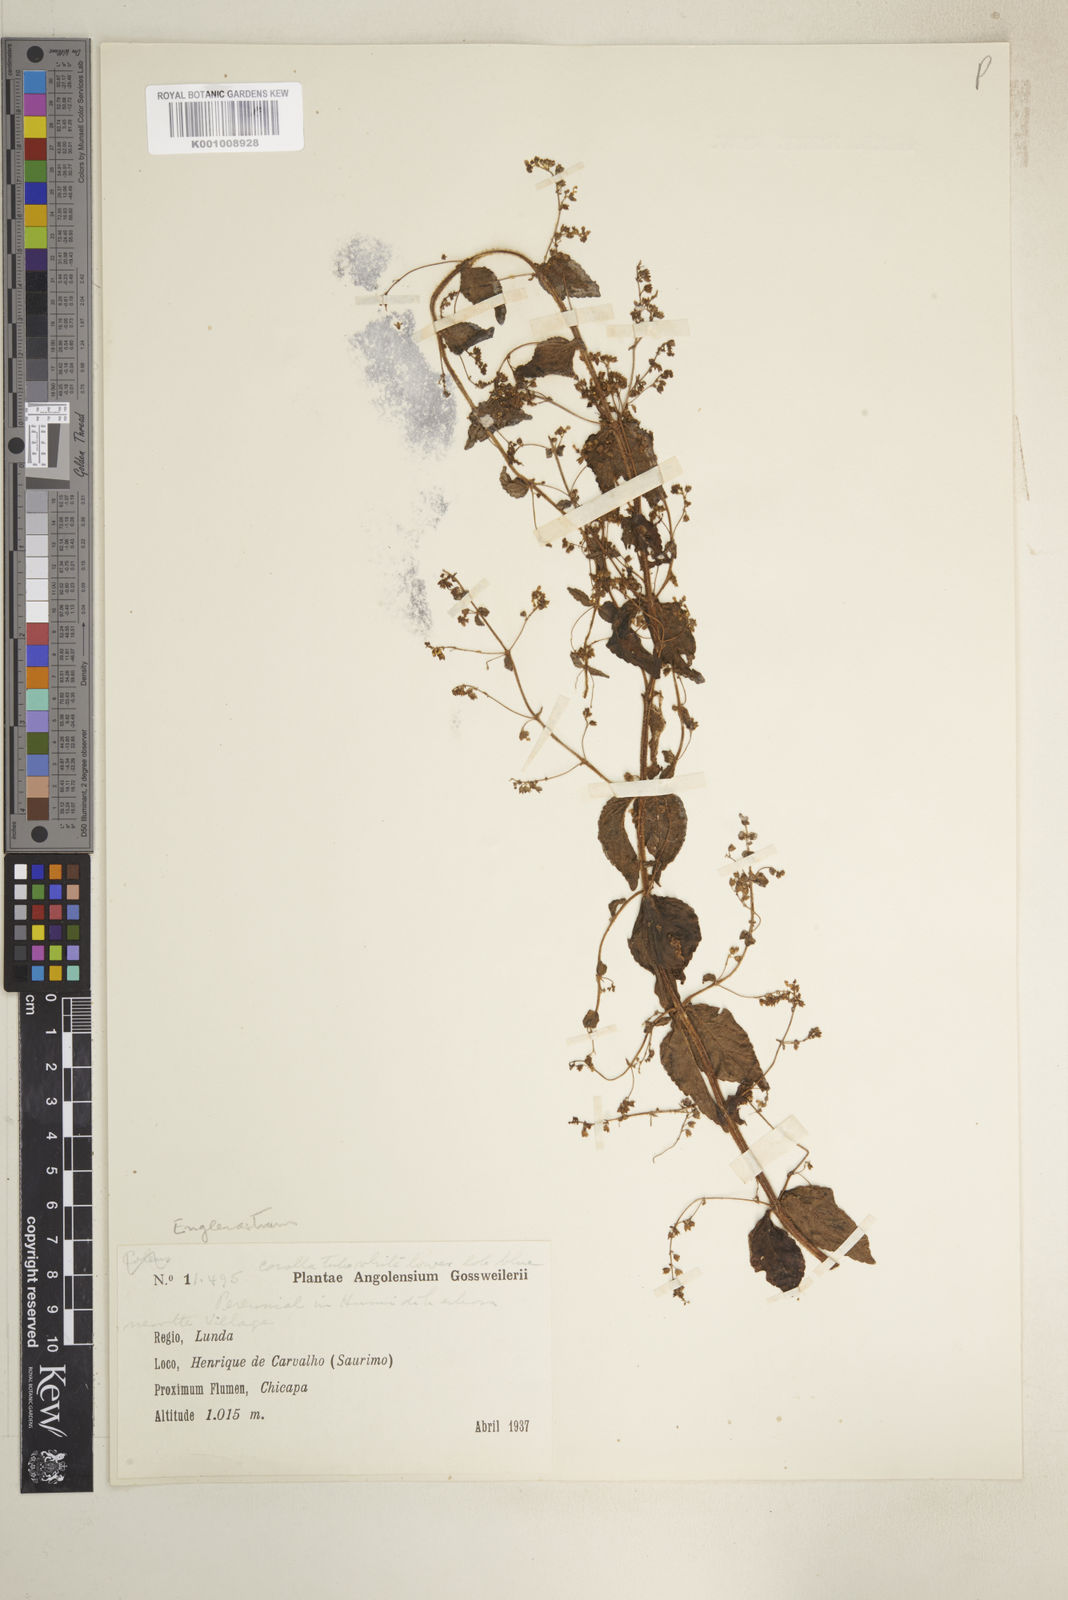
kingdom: Plantae
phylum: Tracheophyta
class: Magnoliopsida
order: Lamiales
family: Lamiaceae
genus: Coleus
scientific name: Coleus rhodesianum
